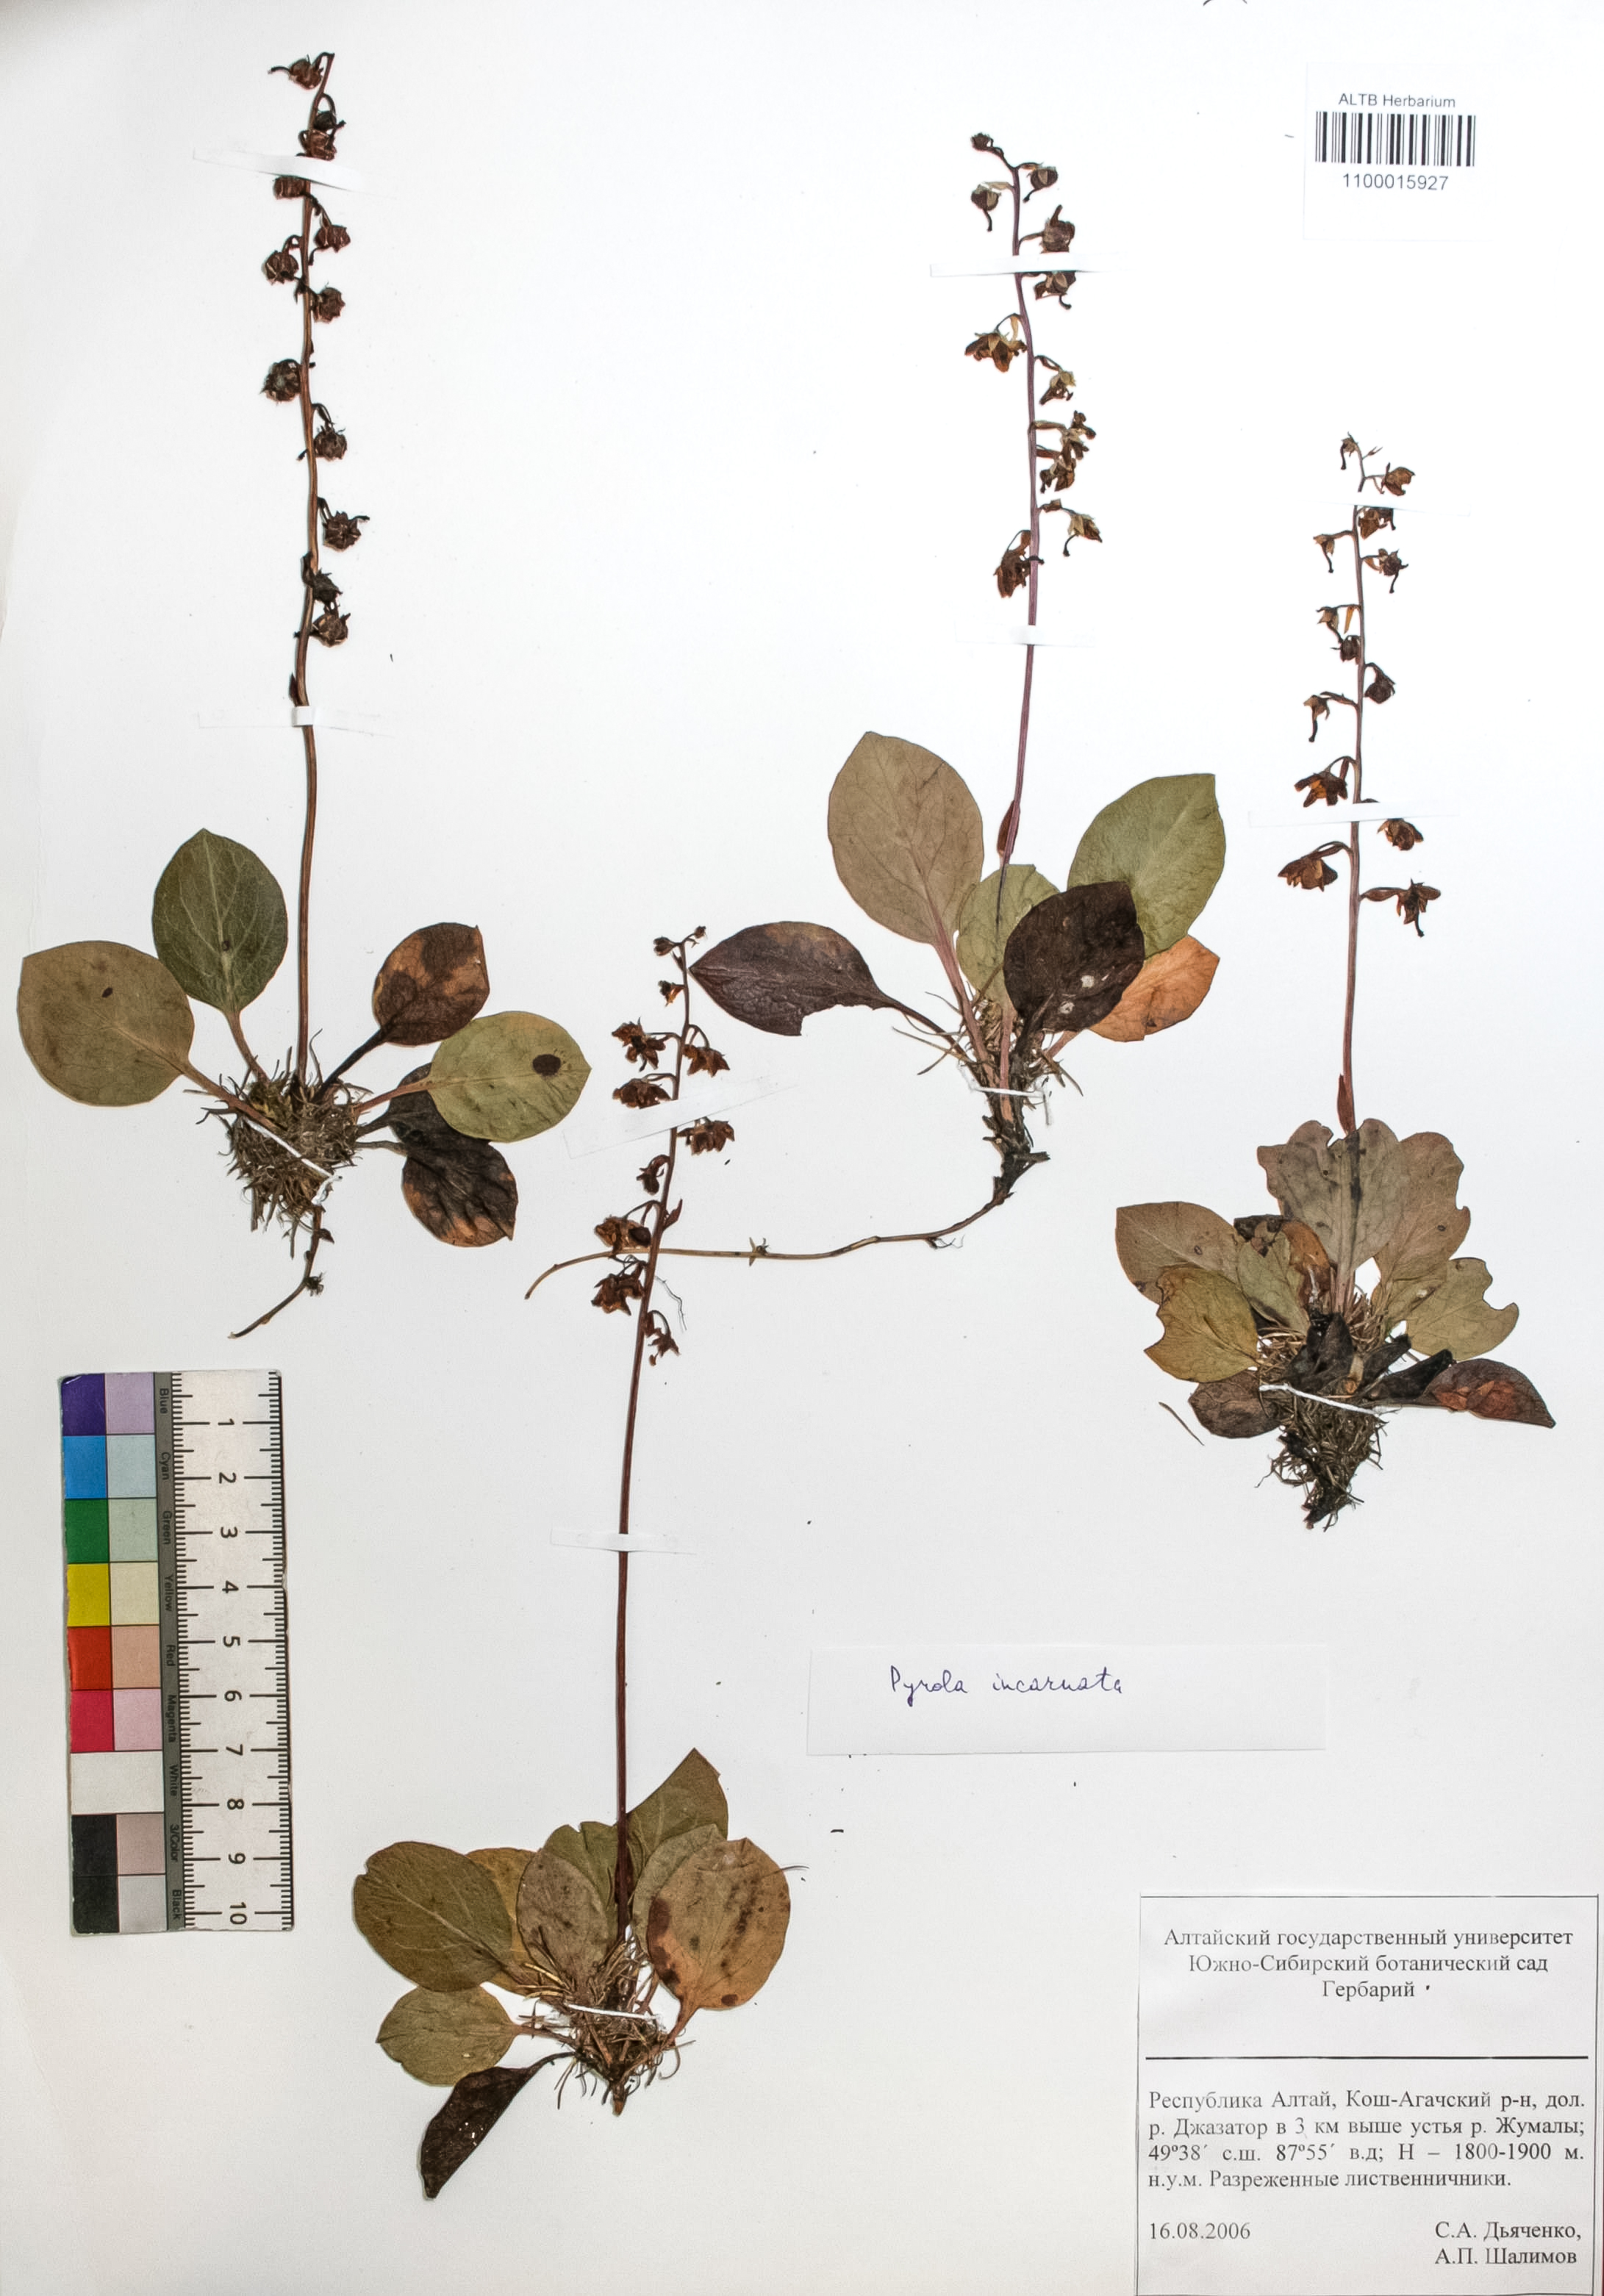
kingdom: Plantae
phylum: Tracheophyta
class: Magnoliopsida
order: Ericales
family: Ericaceae
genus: Pyrola
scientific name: Pyrola asarifolia
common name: Bog wintergreen
